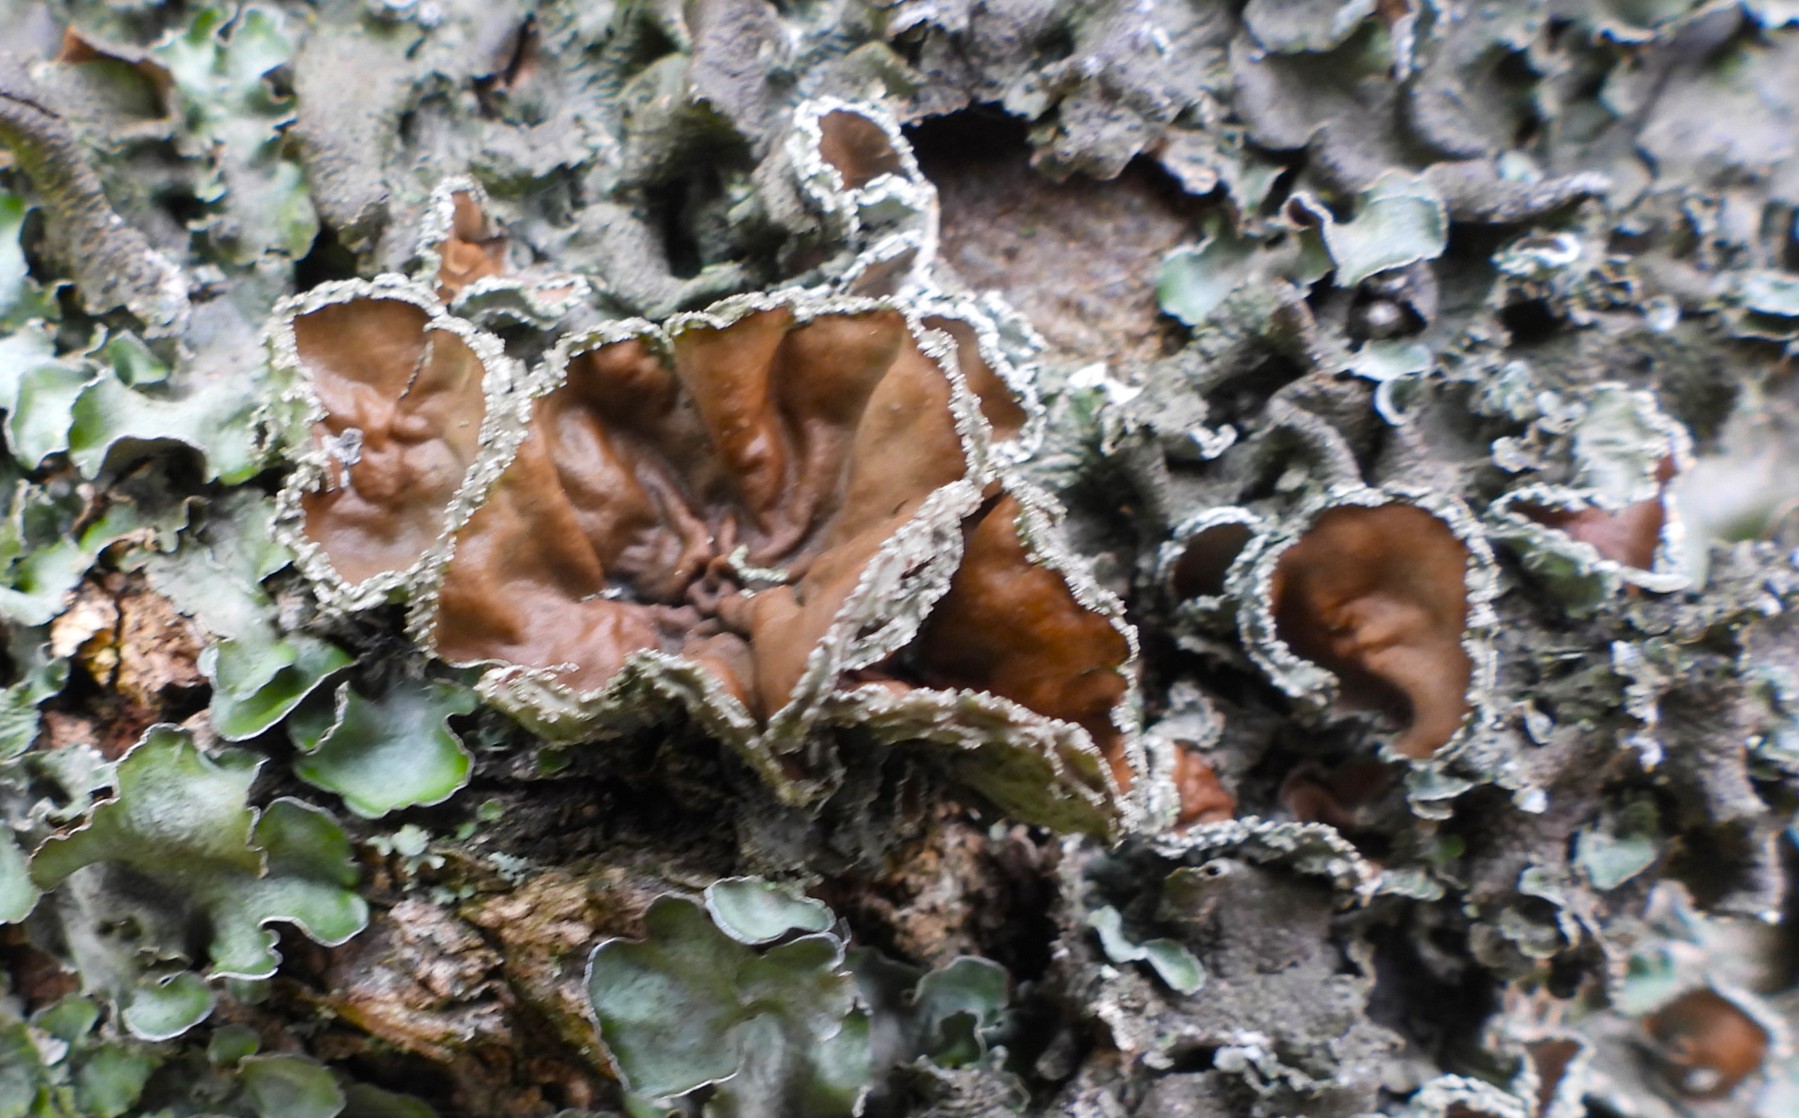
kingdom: Fungi
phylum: Ascomycota
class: Lecanoromycetes
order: Lecanorales
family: Parmeliaceae
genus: Pleurosticta
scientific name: Pleurosticta acetabulum
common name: stor skållav
